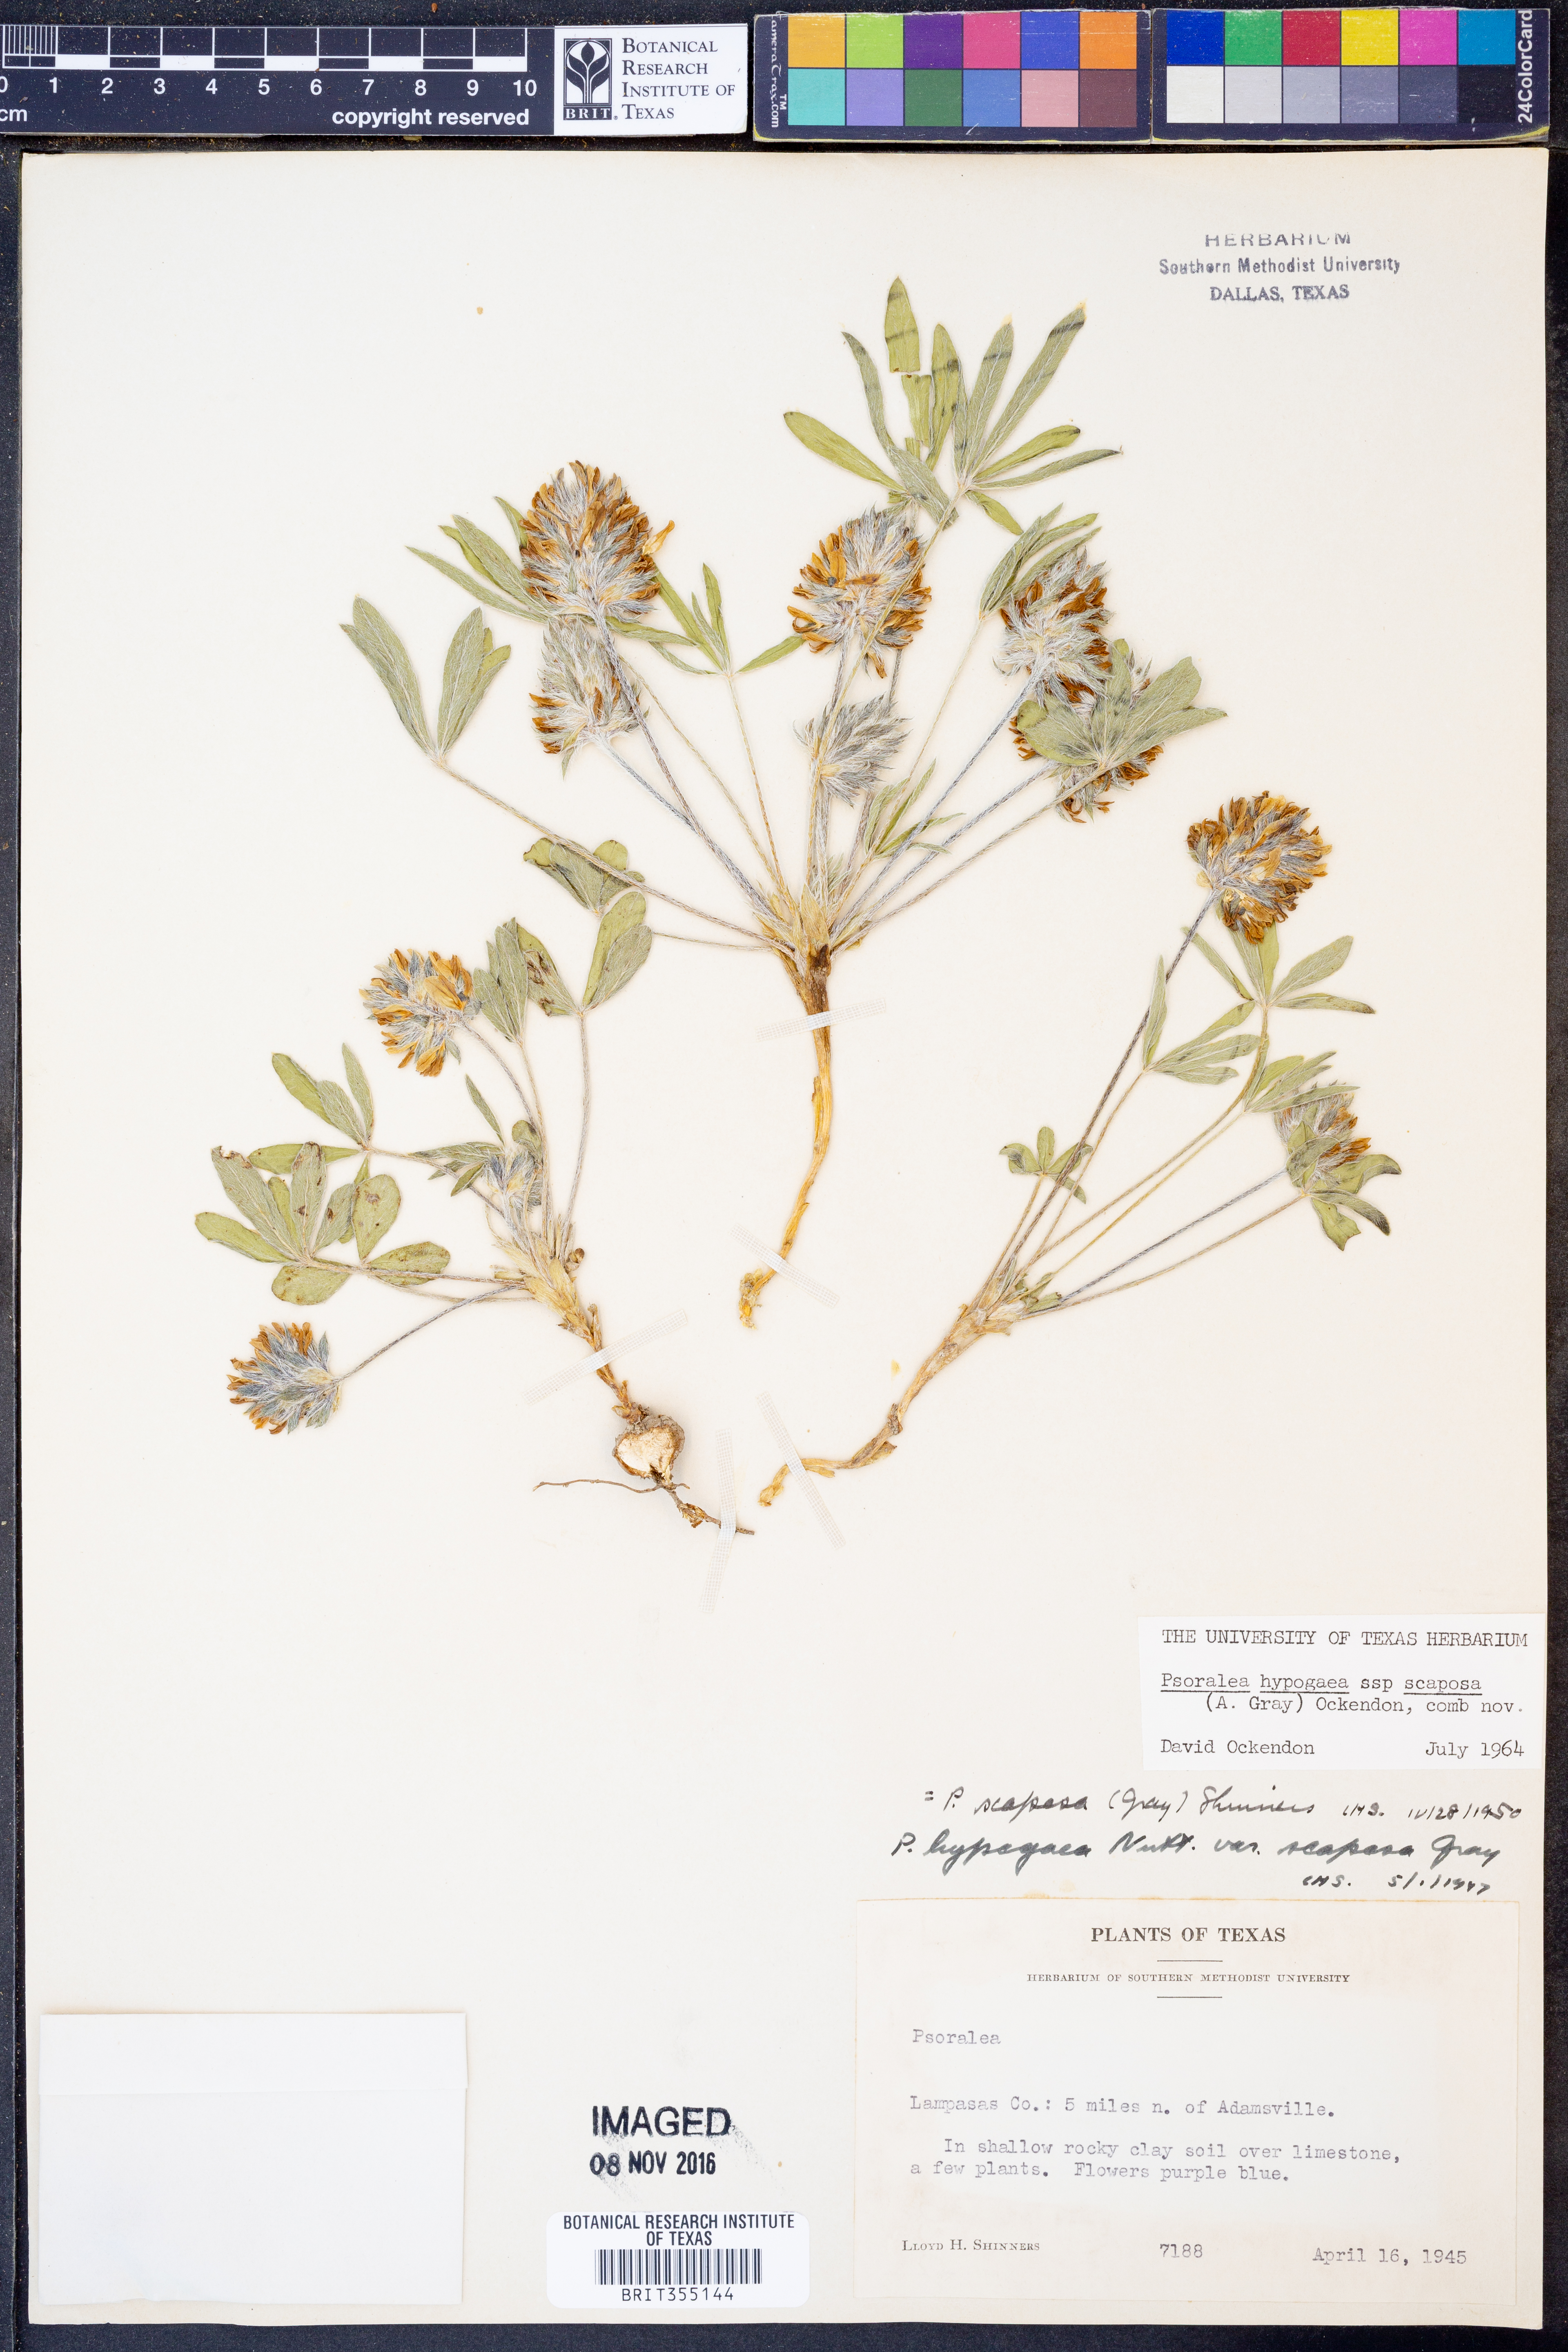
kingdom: Plantae
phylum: Tracheophyta
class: Magnoliopsida
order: Fabales
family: Fabaceae
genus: Pediomelum
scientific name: Pediomelum hypogaeum
